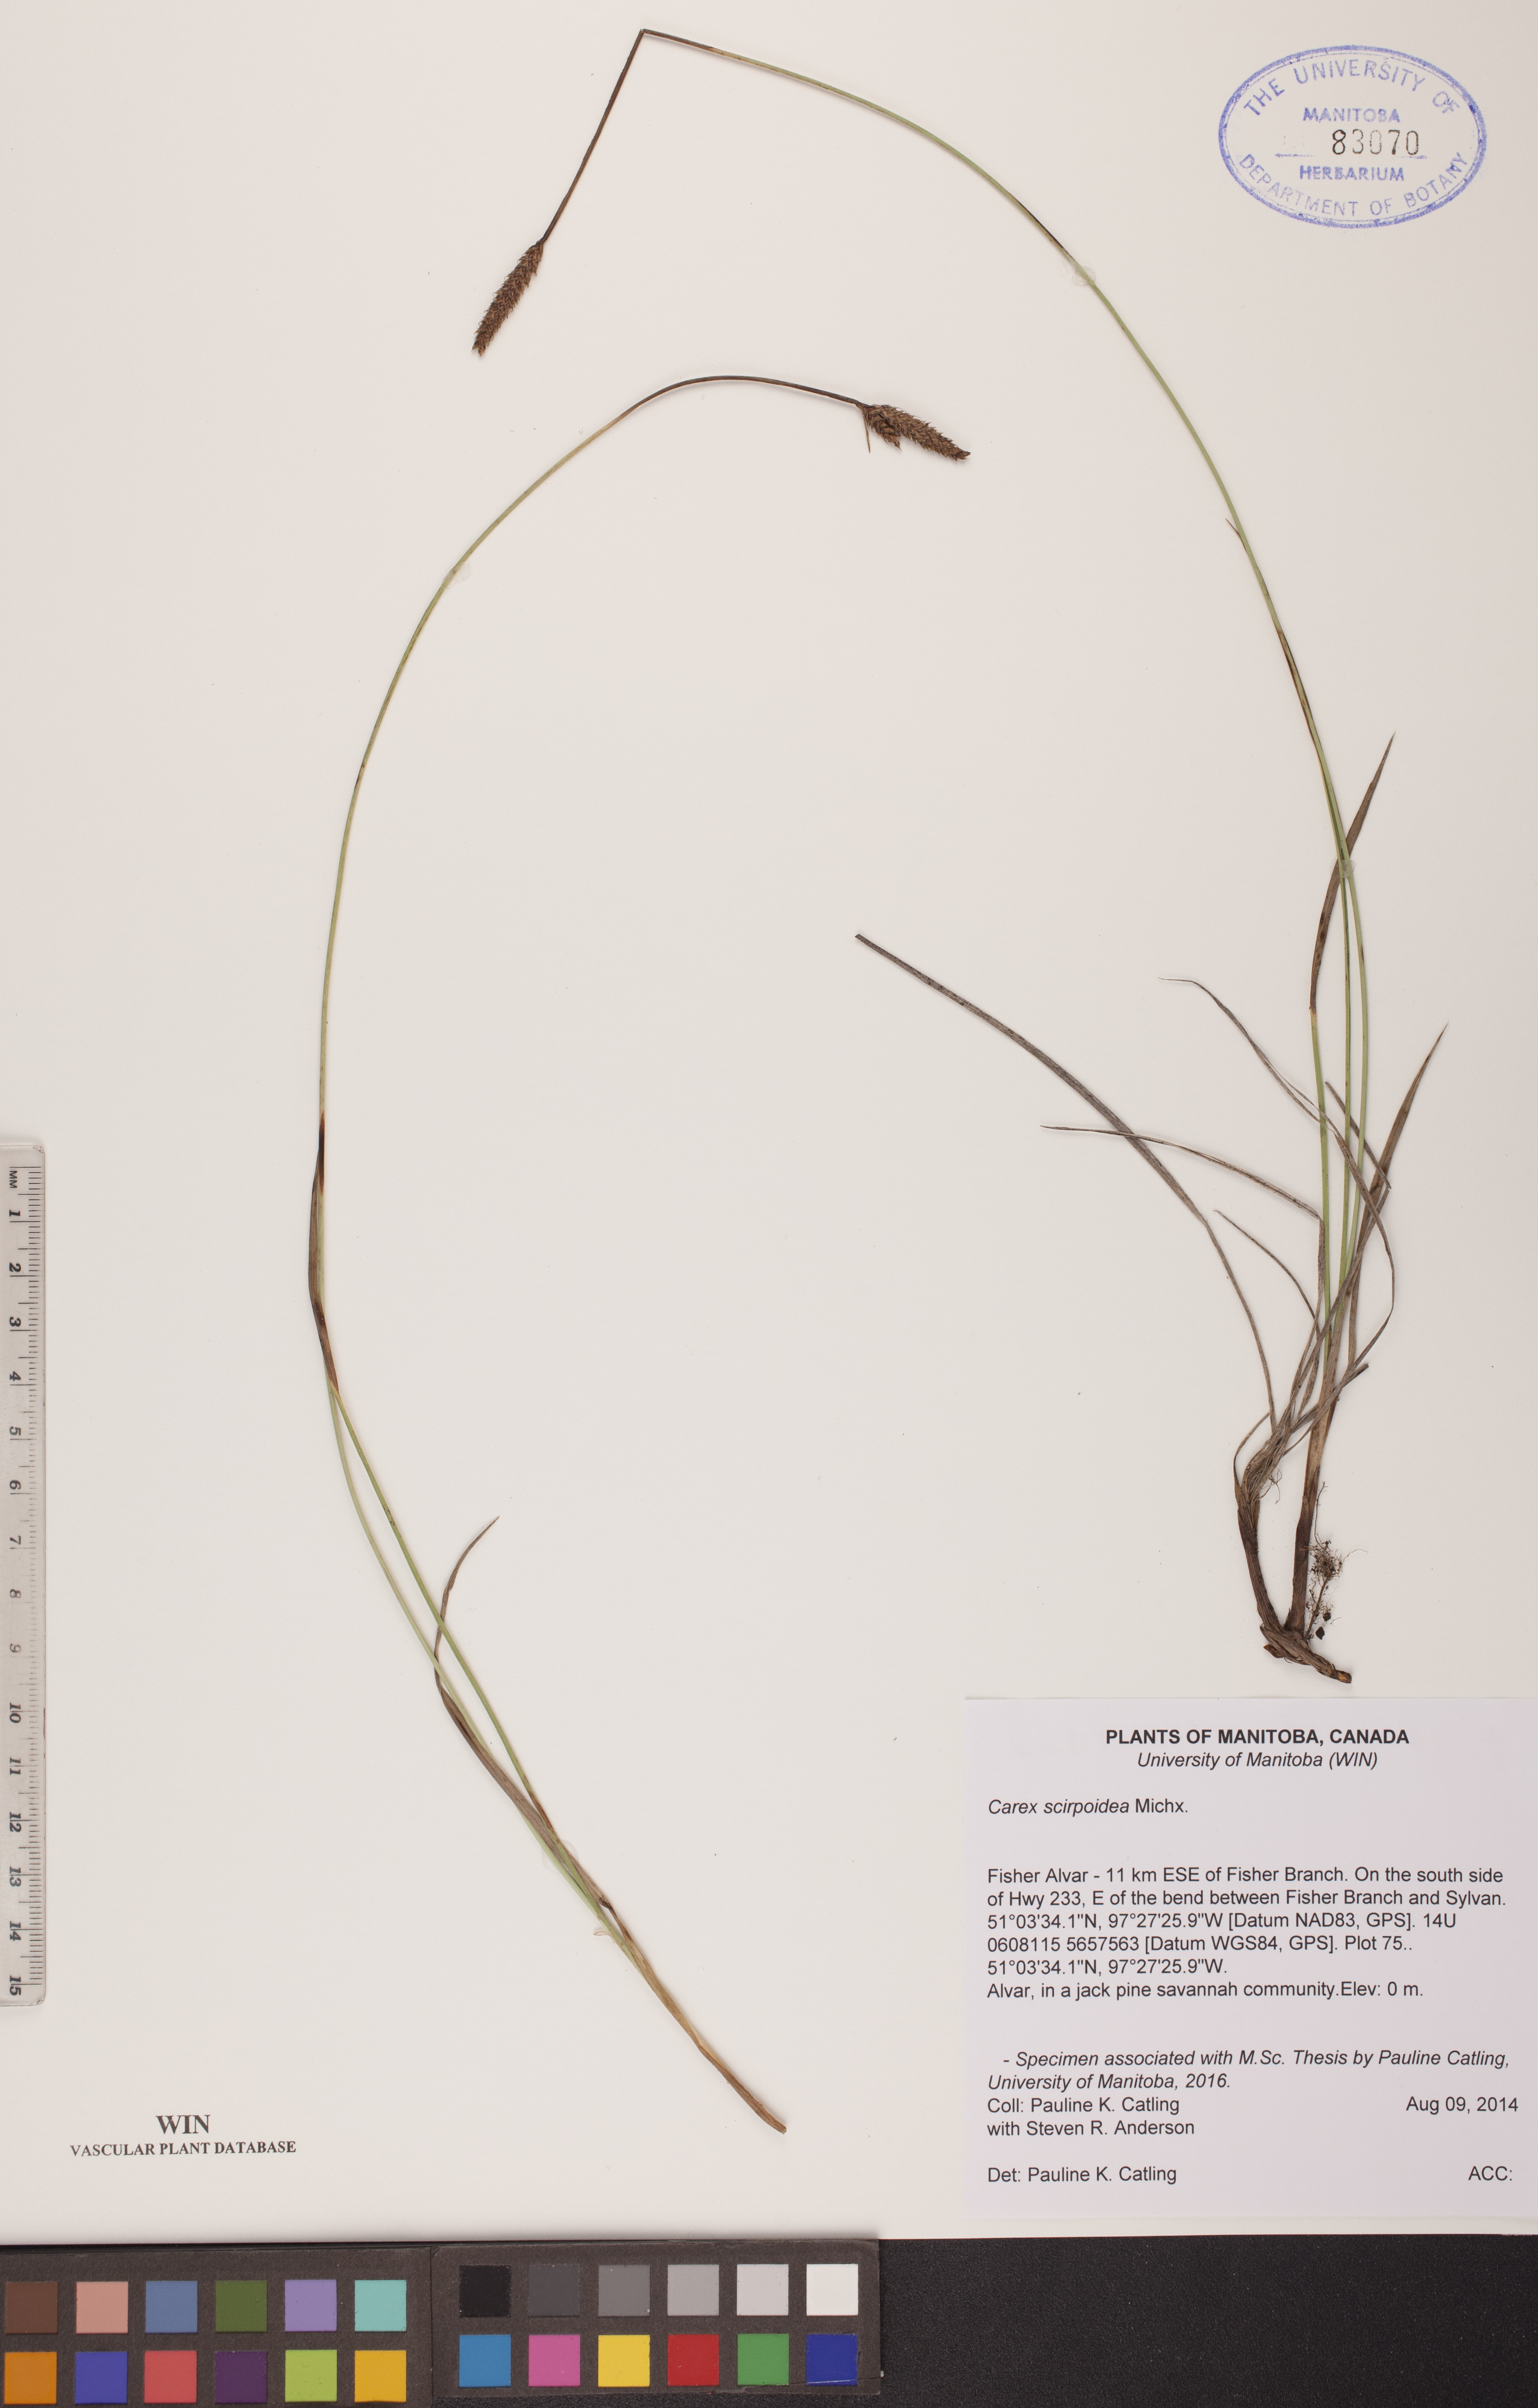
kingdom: Plantae
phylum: Tracheophyta
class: Liliopsida
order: Poales
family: Cyperaceae
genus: Carex
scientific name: Carex scirpoidea
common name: Canada single-spike sedge
